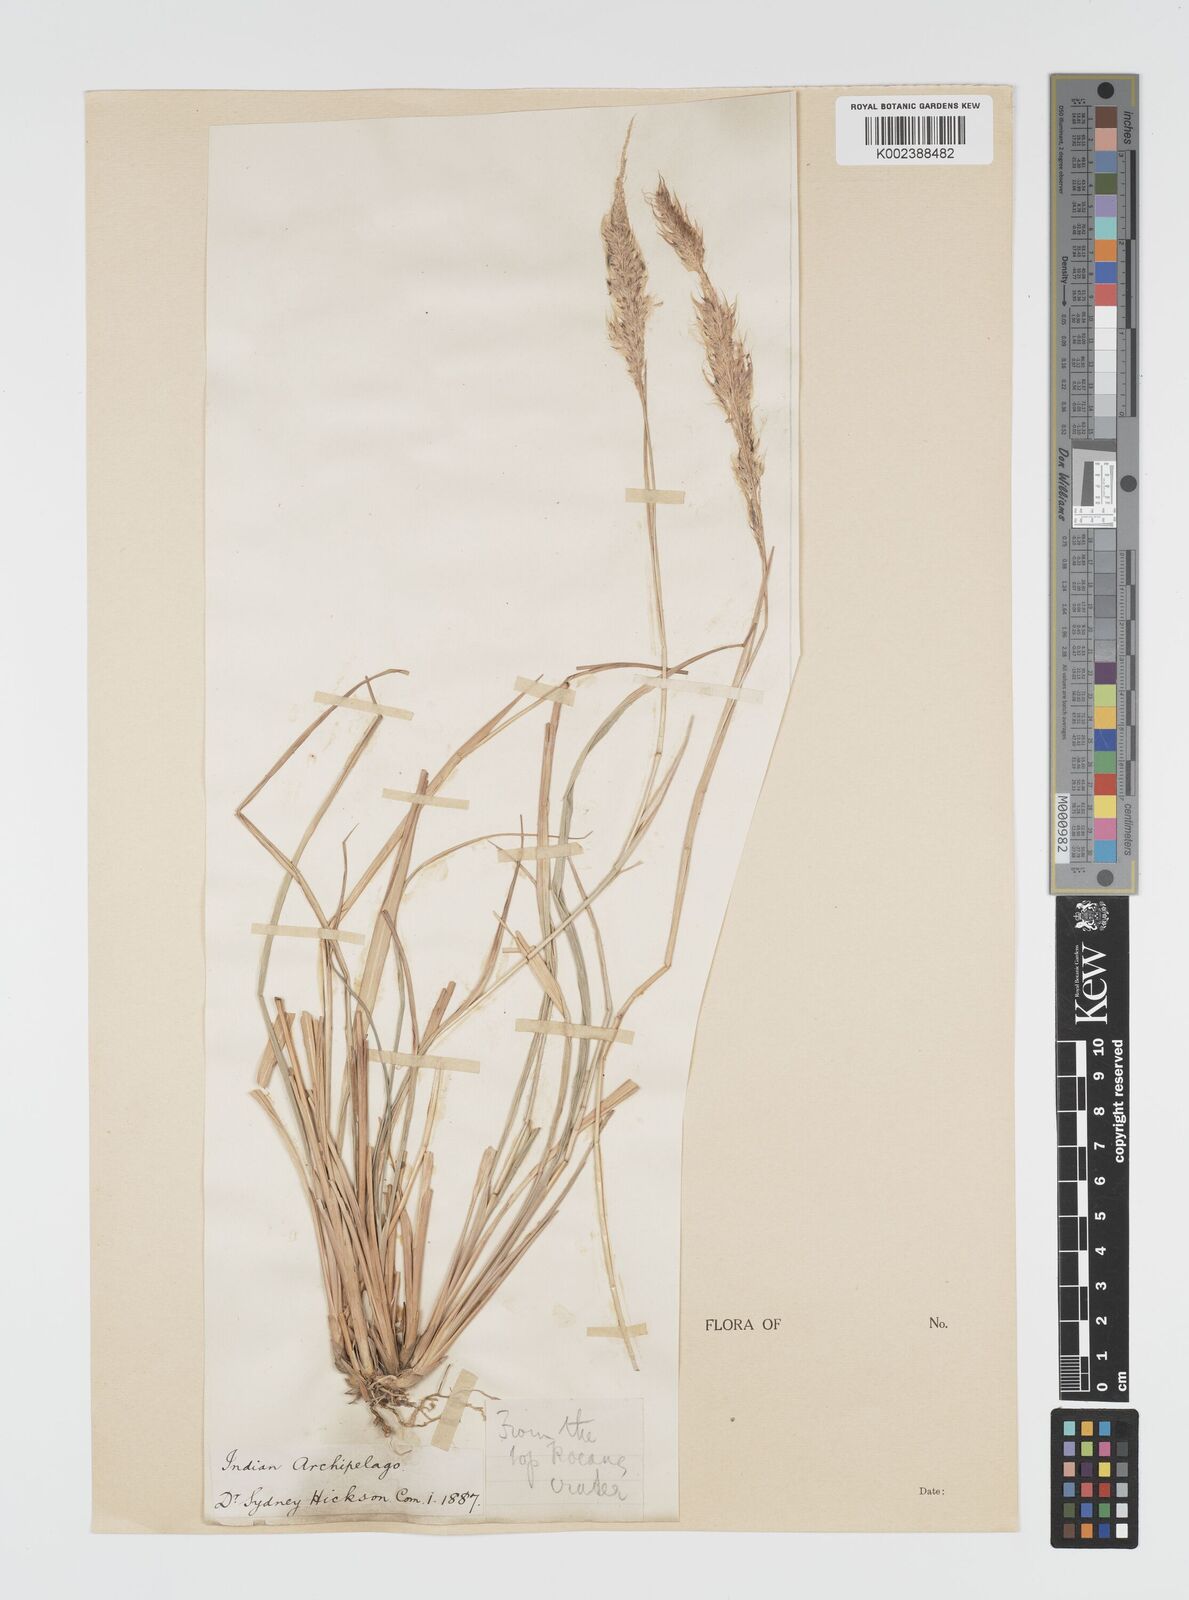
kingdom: Plantae
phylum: Tracheophyta
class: Liliopsida
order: Poales
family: Poaceae
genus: Imperata
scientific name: Imperata cylindrica
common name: Cogongrass
